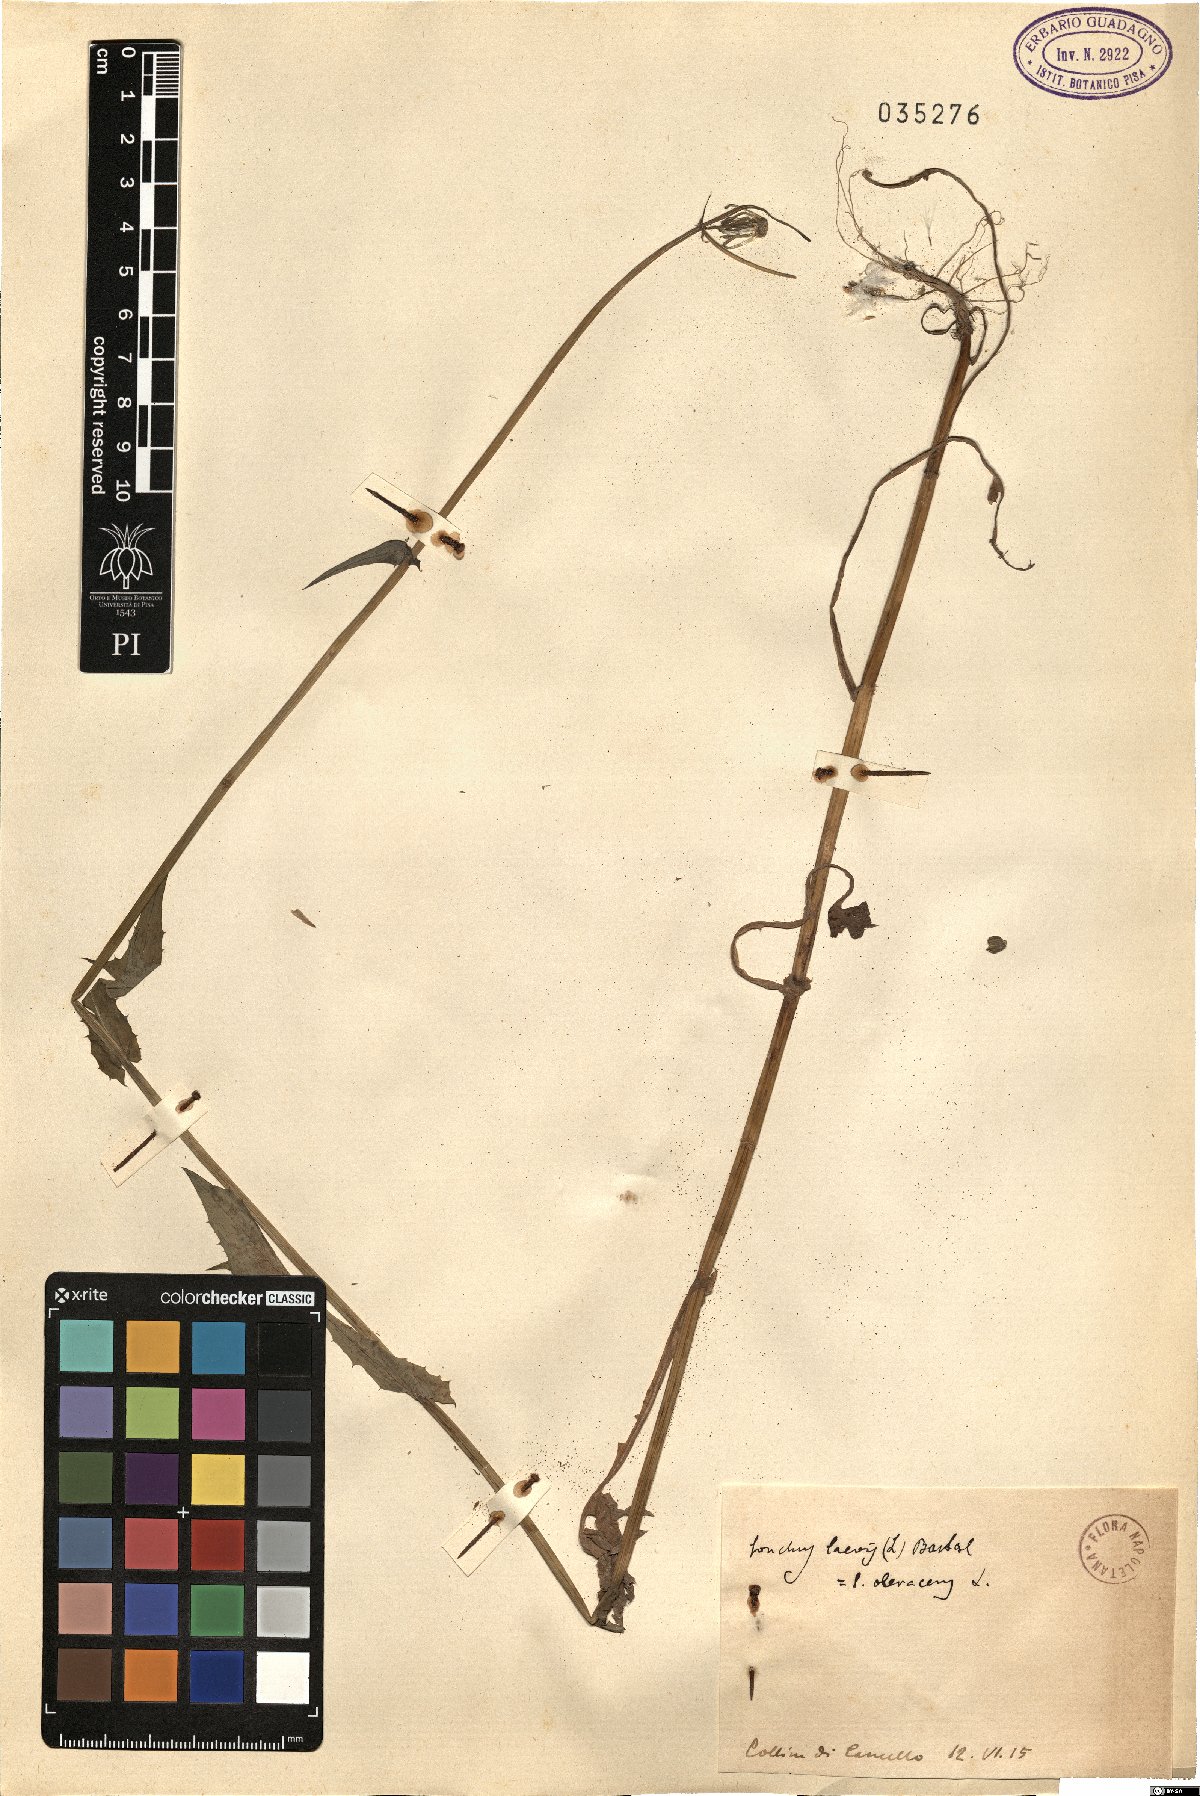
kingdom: Plantae
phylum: Tracheophyta
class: Magnoliopsida
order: Asterales
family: Asteraceae
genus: Sonchus
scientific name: Sonchus oleraceus
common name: Common sowthistle
